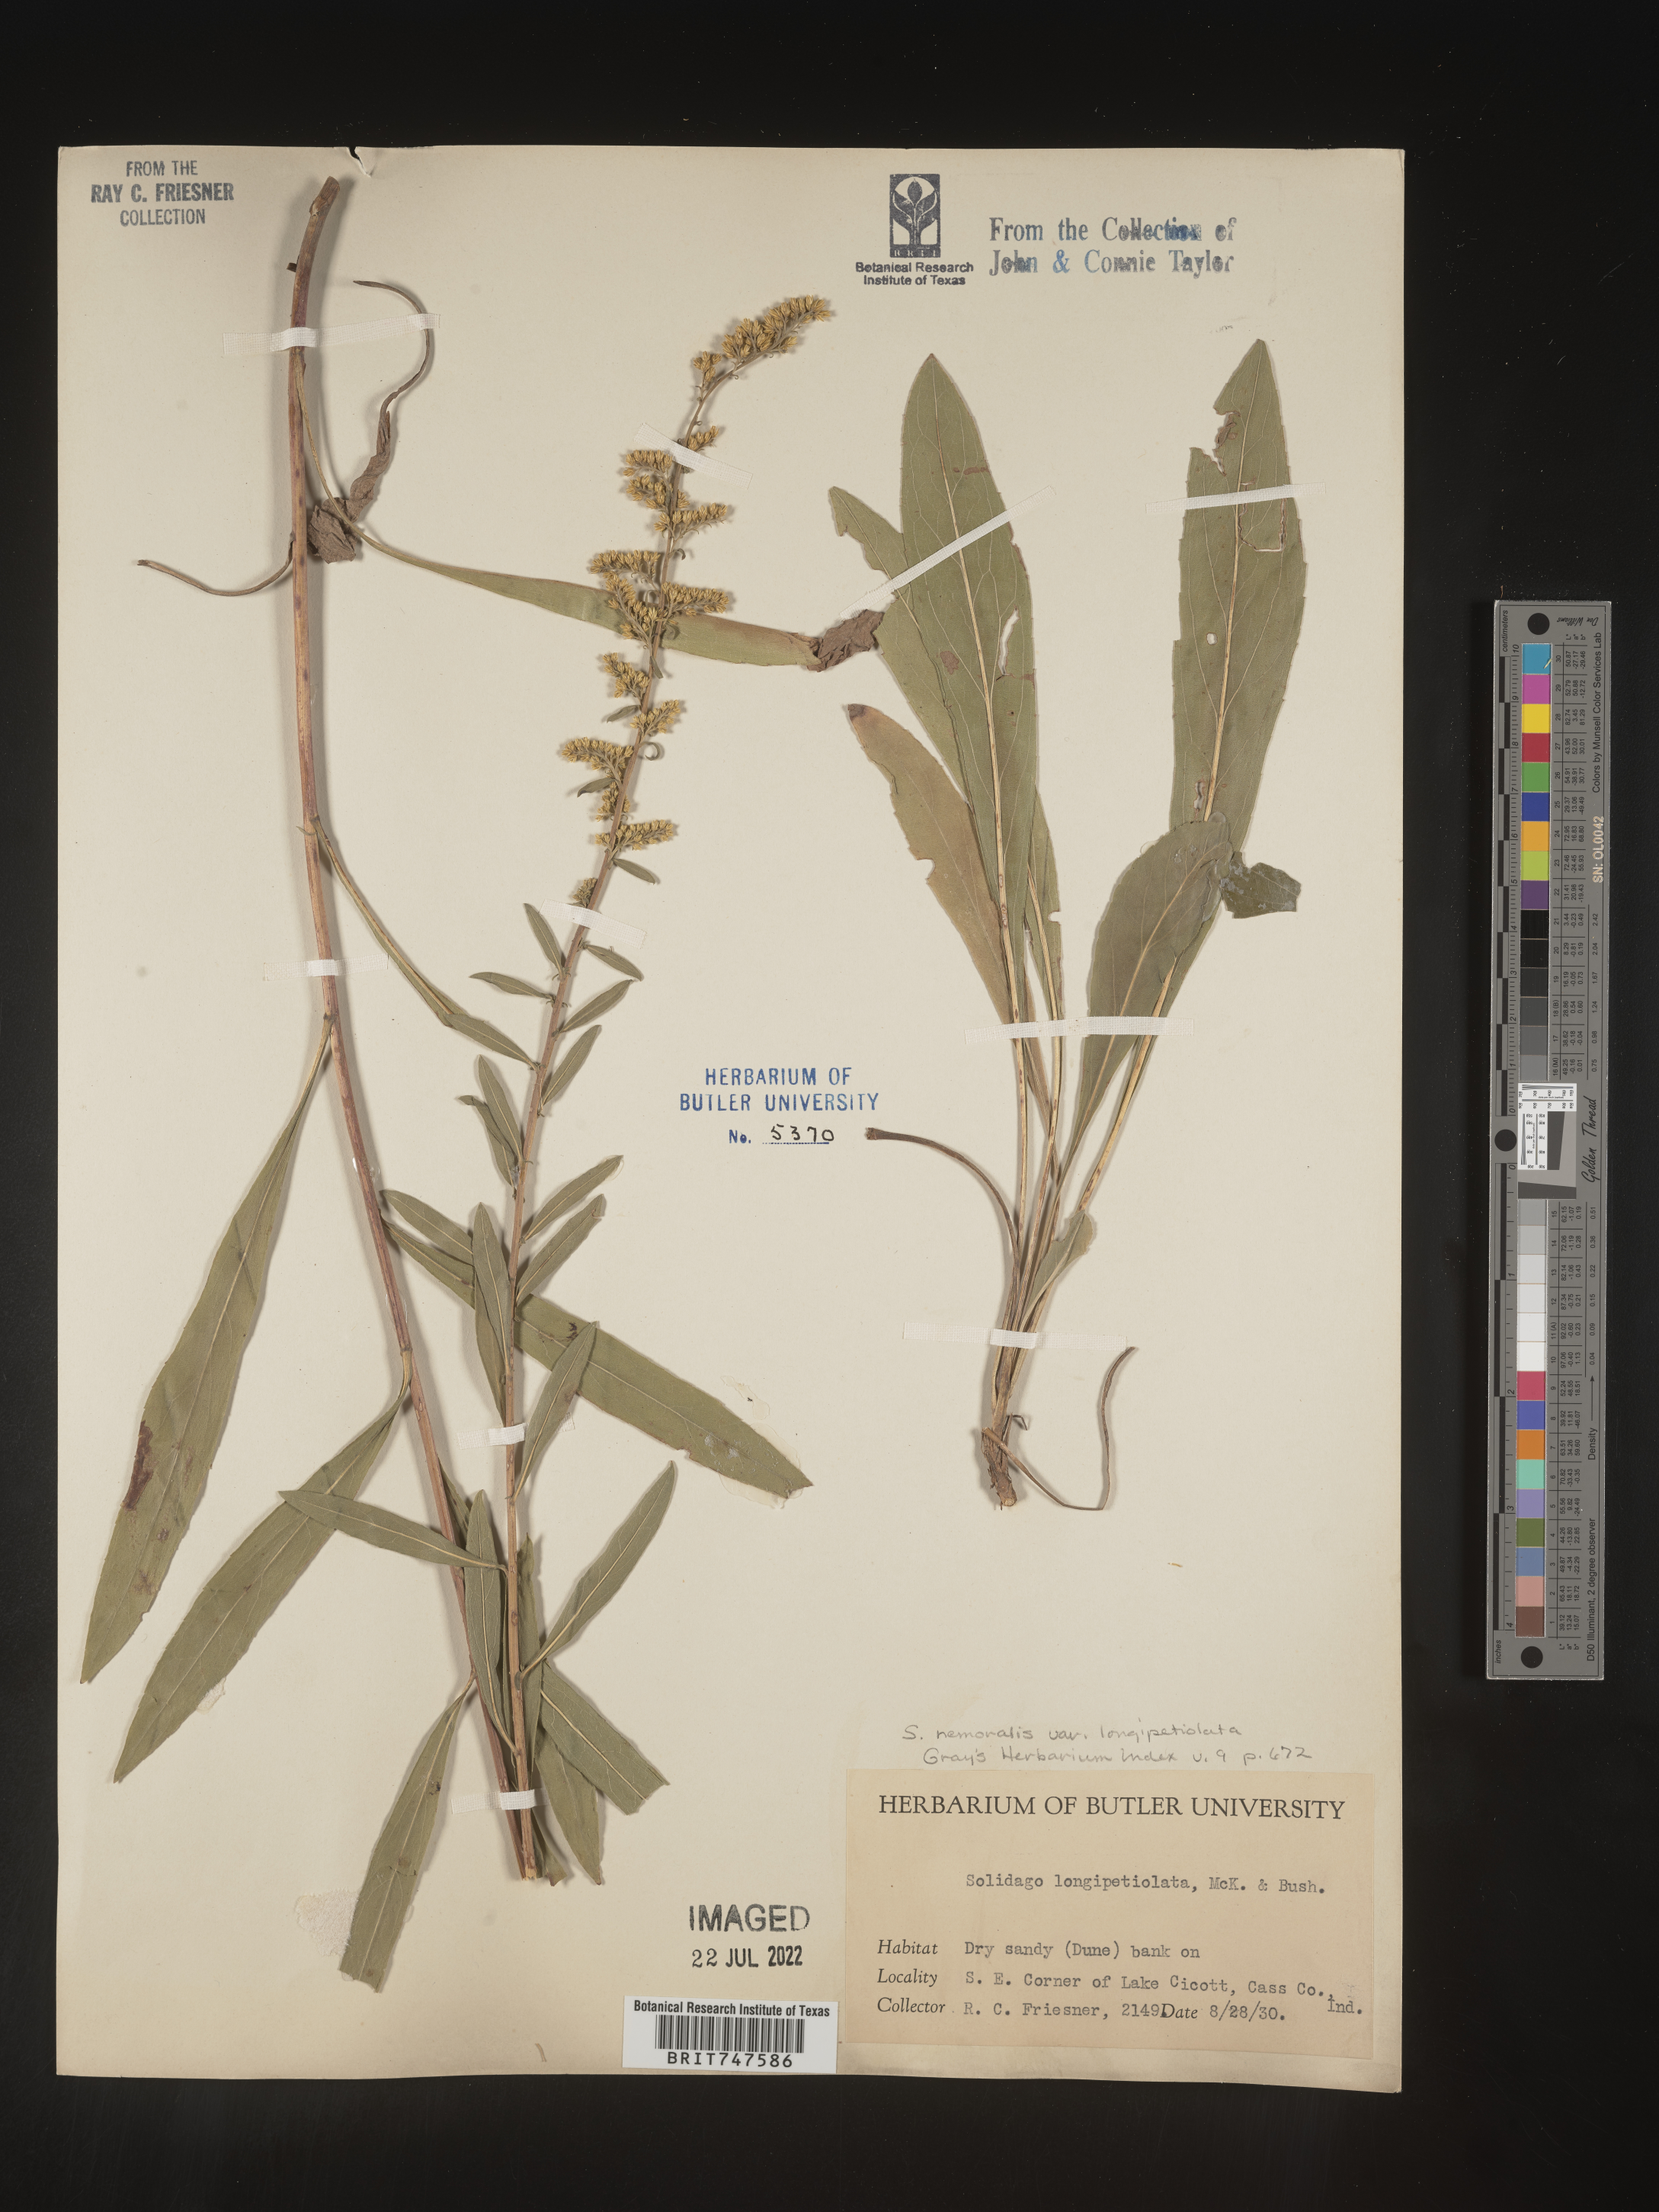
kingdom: Plantae
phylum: Tracheophyta
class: Magnoliopsida
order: Asterales
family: Asteraceae
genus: Solidago
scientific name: Solidago nemoralis
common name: Grey goldenrod
